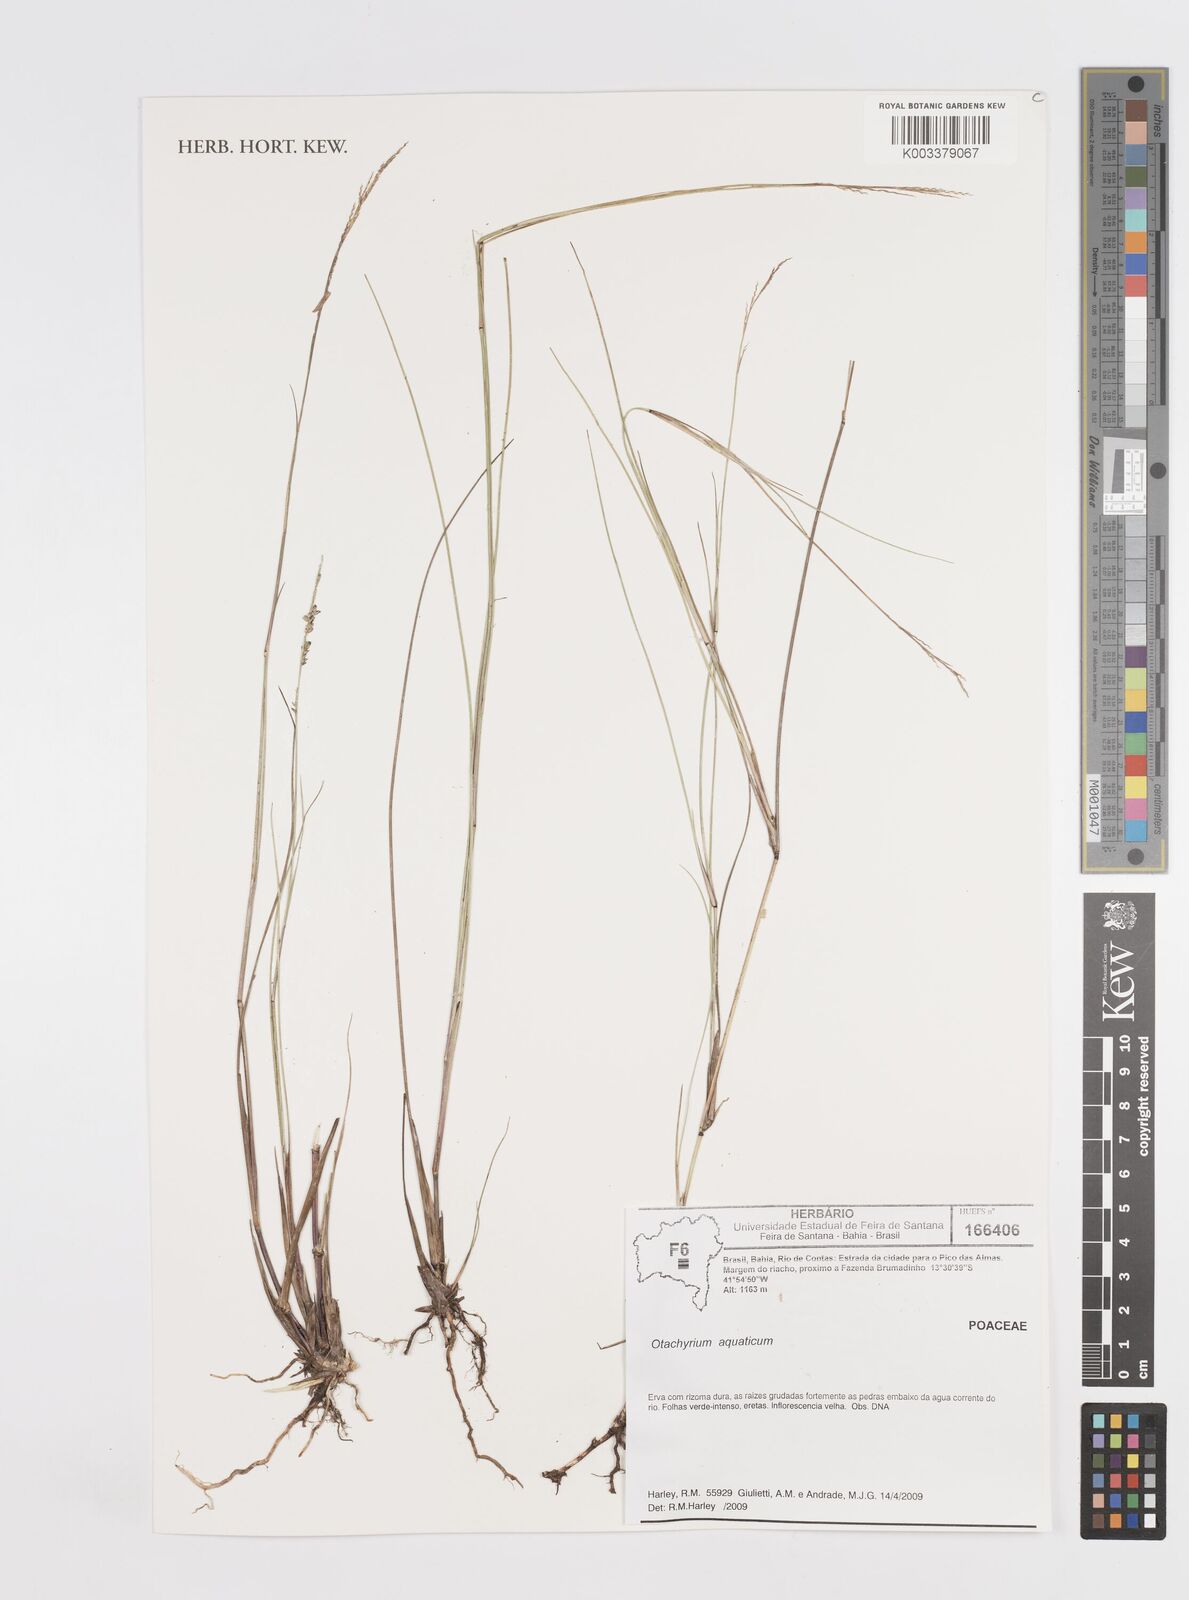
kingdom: Plantae
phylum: Tracheophyta
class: Liliopsida
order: Poales
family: Poaceae
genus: Otachyrium
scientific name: Otachyrium aquaticum
